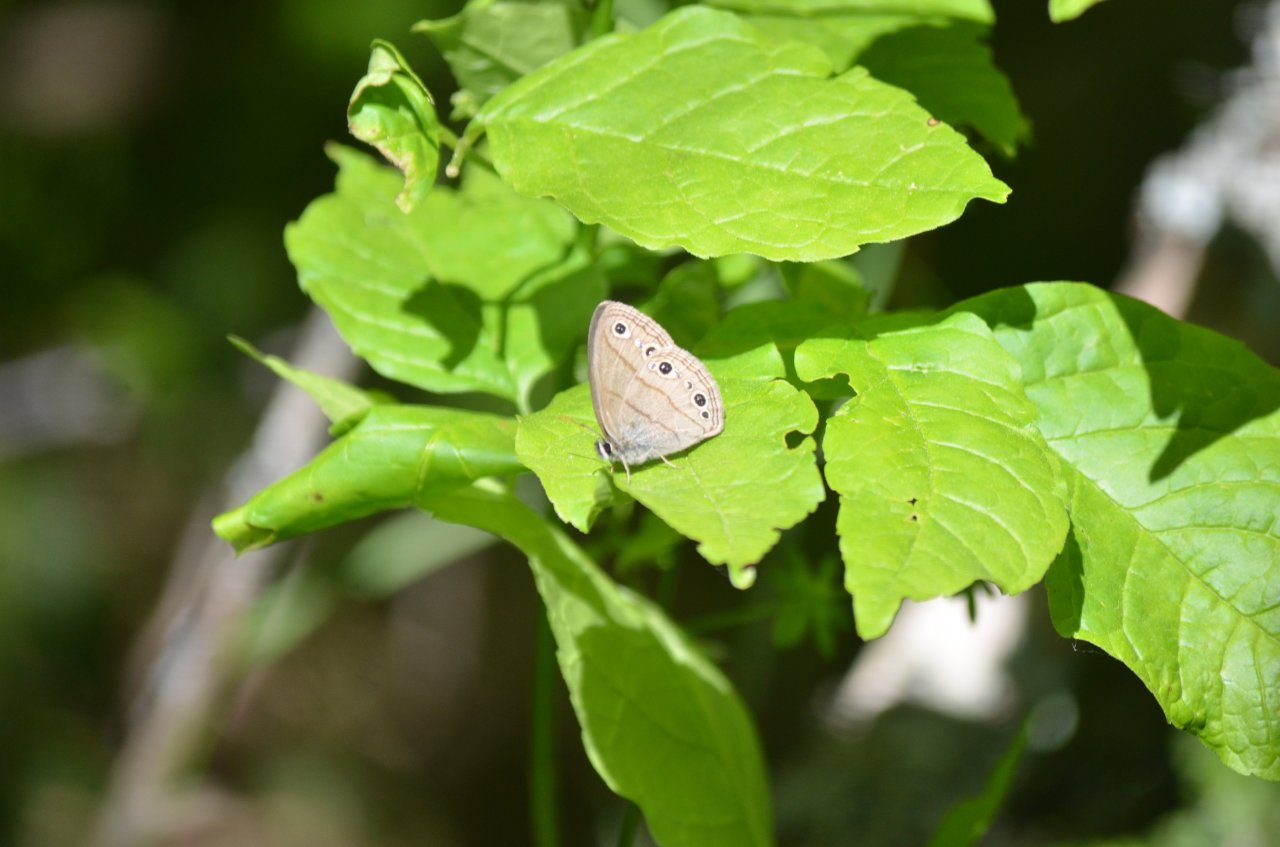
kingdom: Animalia
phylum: Arthropoda
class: Insecta
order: Lepidoptera
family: Nymphalidae
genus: Euptychia
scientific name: Euptychia cymela
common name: Little Wood Satyr
